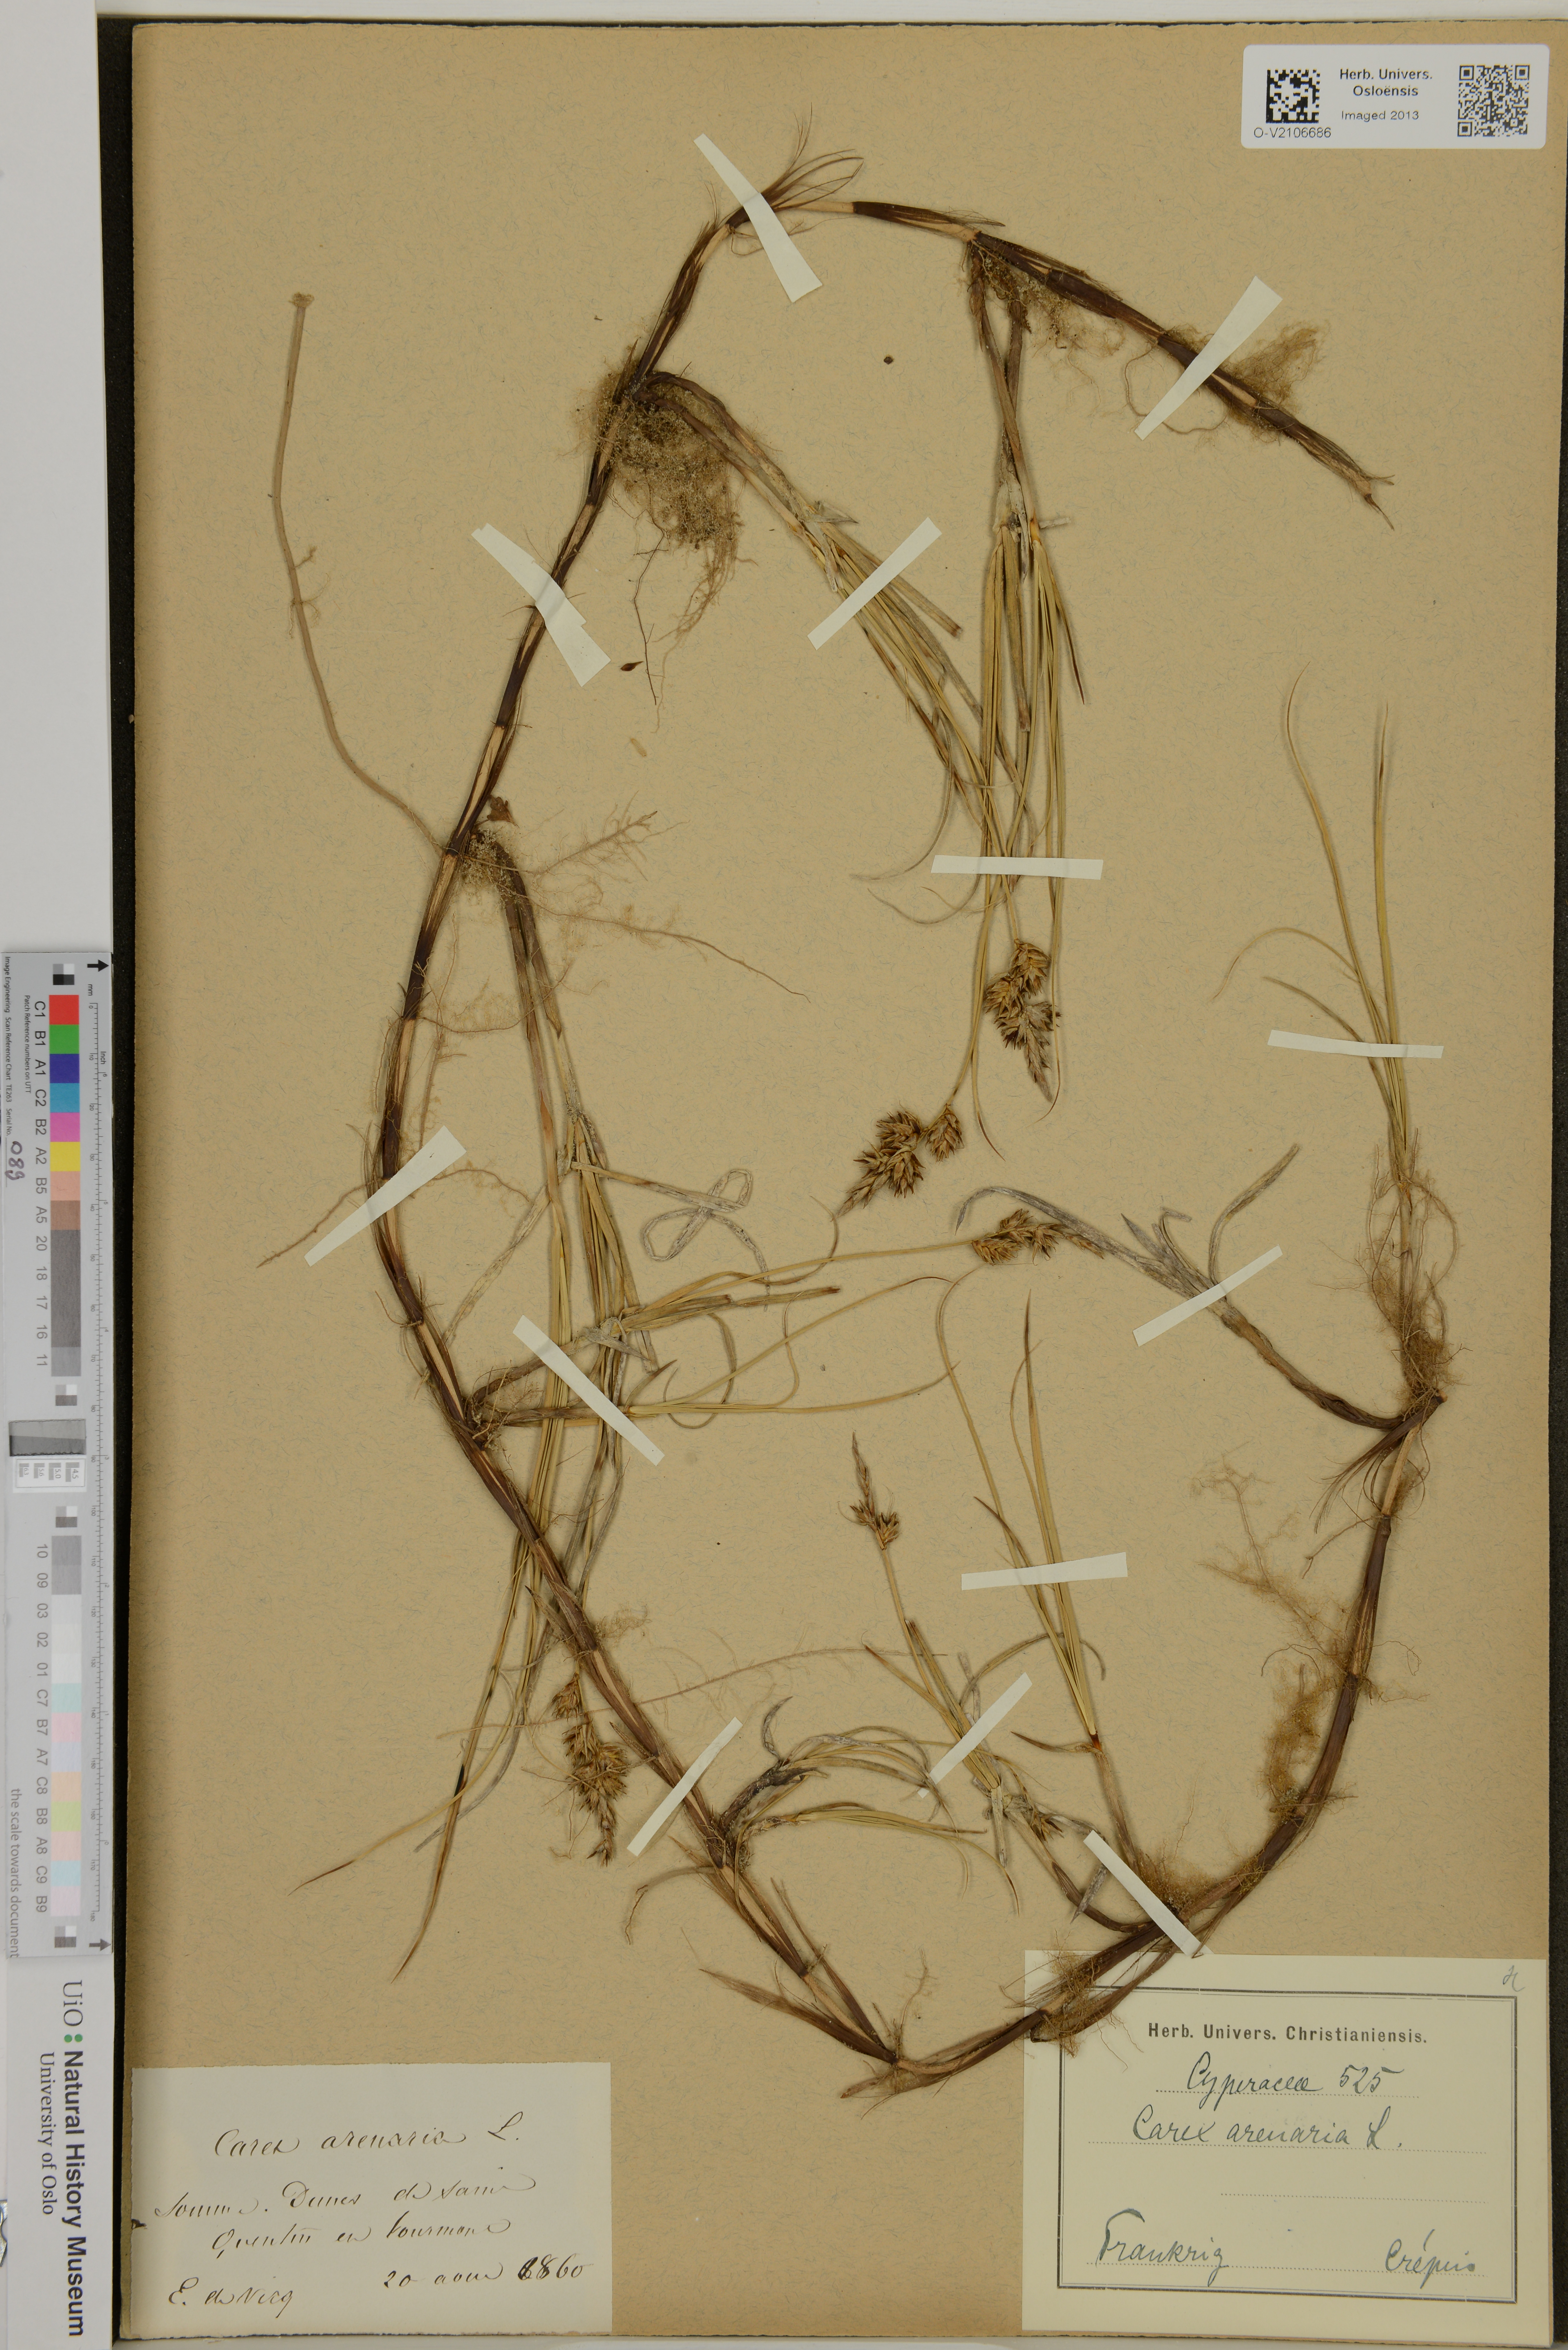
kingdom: Plantae
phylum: Tracheophyta
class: Liliopsida
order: Poales
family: Cyperaceae
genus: Carex
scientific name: Carex arenaria
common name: Sand sedge
